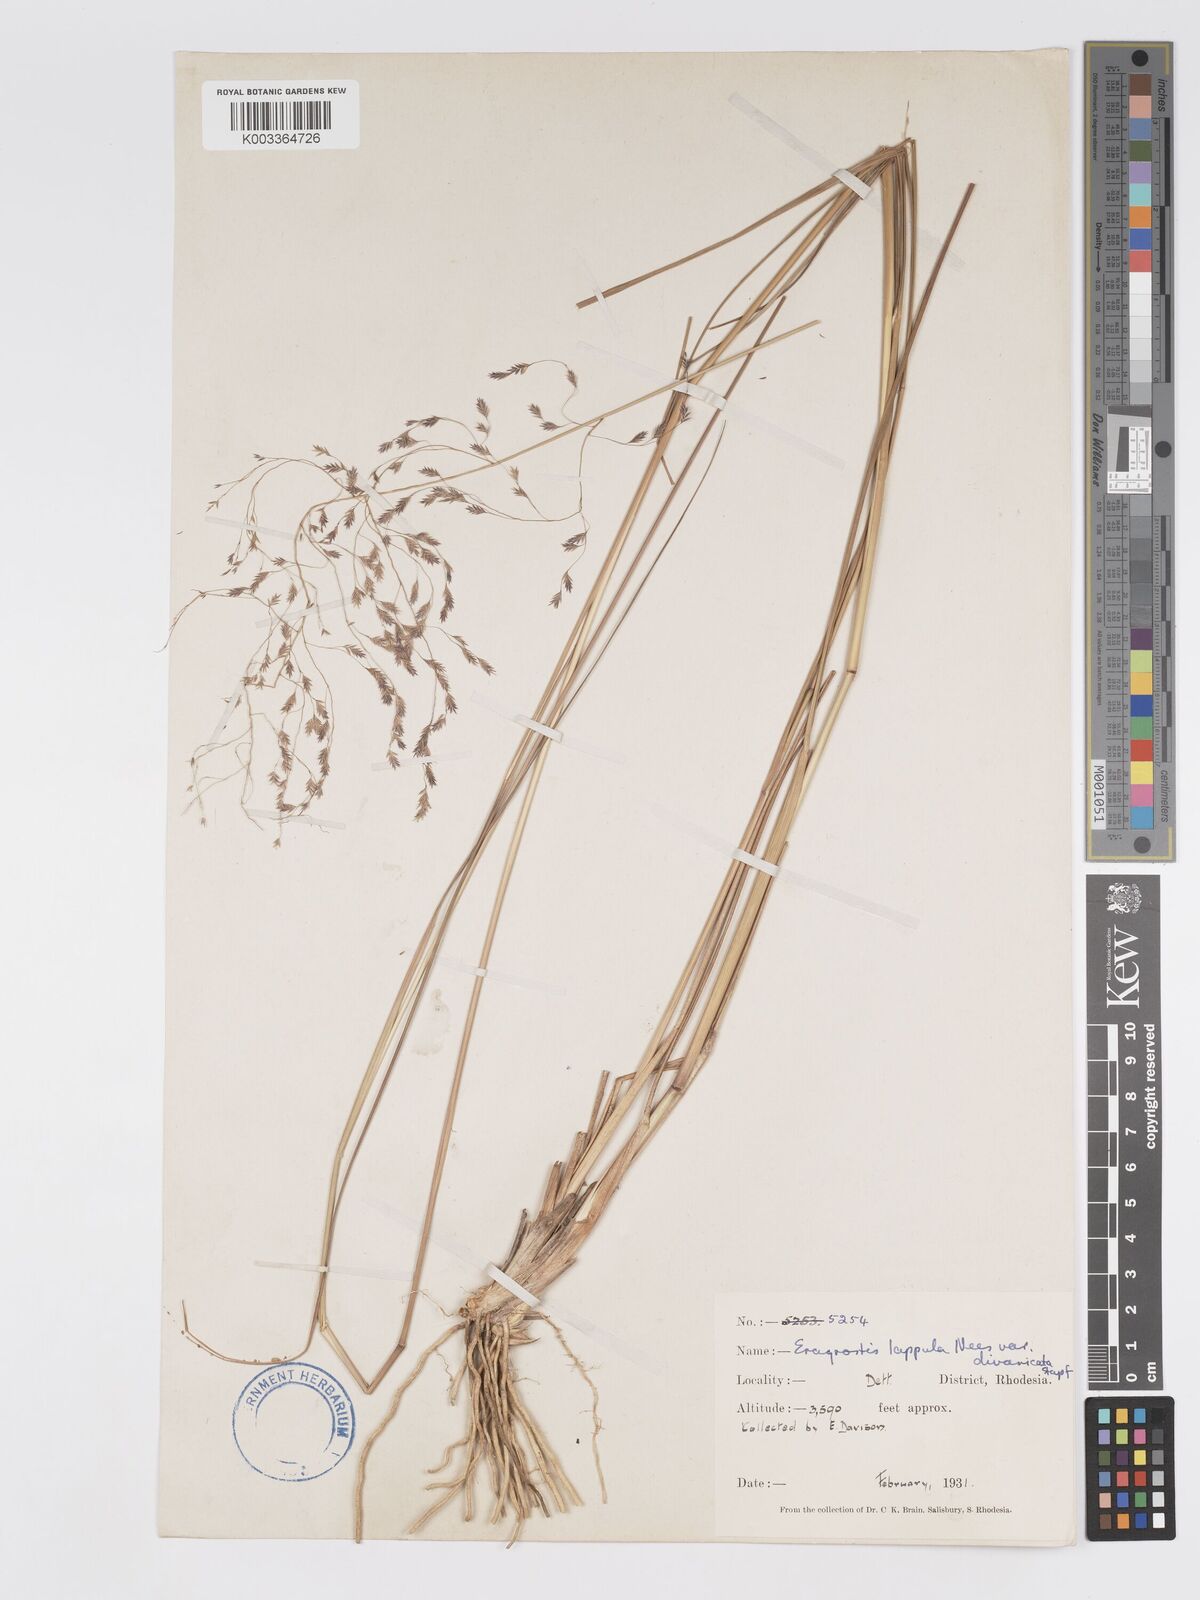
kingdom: Plantae
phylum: Tracheophyta
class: Liliopsida
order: Poales
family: Poaceae
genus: Eragrostis
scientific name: Eragrostis lappula
